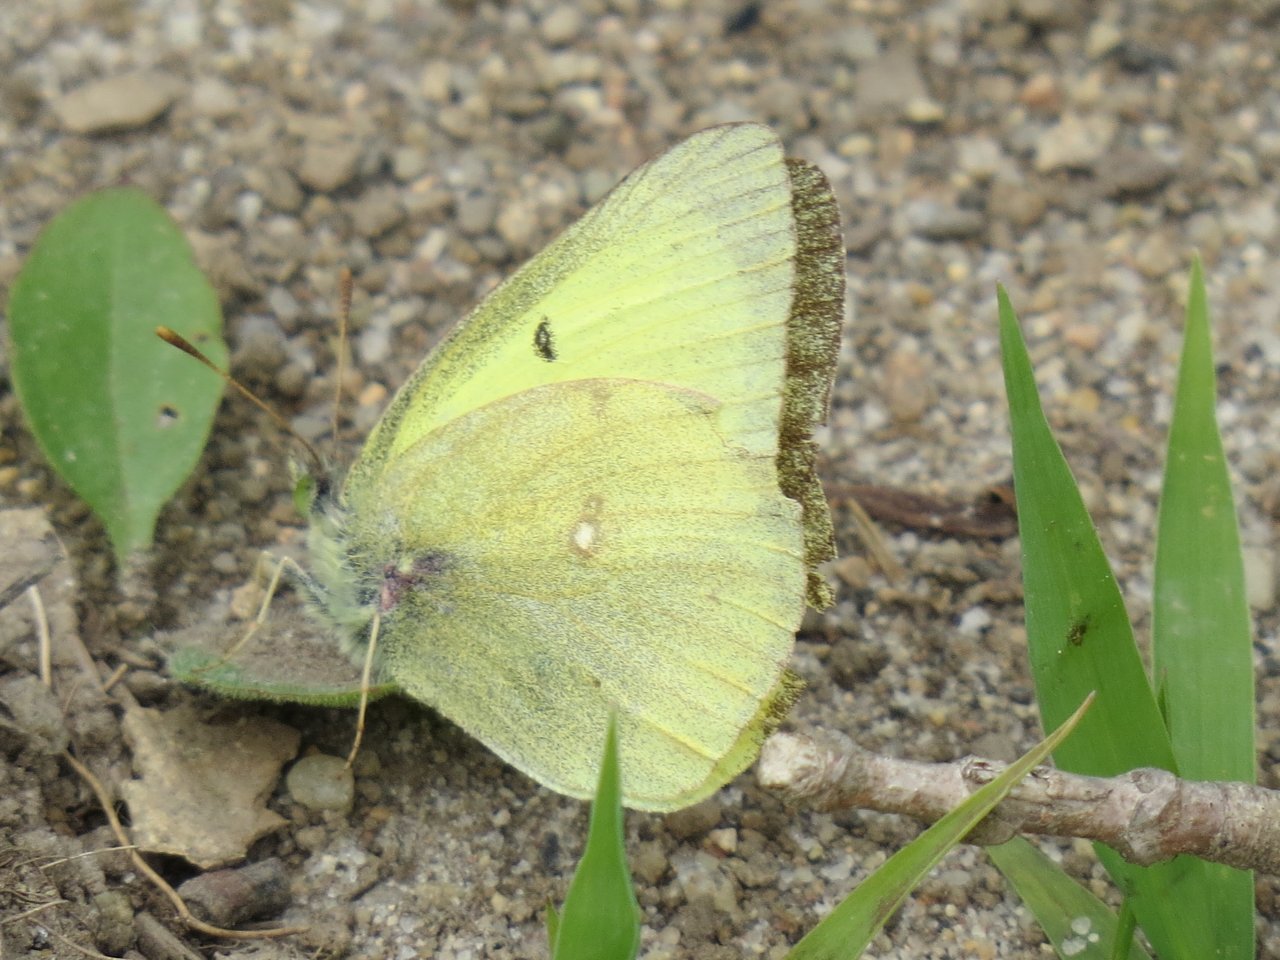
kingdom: Animalia
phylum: Arthropoda
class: Insecta
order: Lepidoptera
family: Pieridae
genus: Colias
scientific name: Colias philodice
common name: Clouded Sulphur
